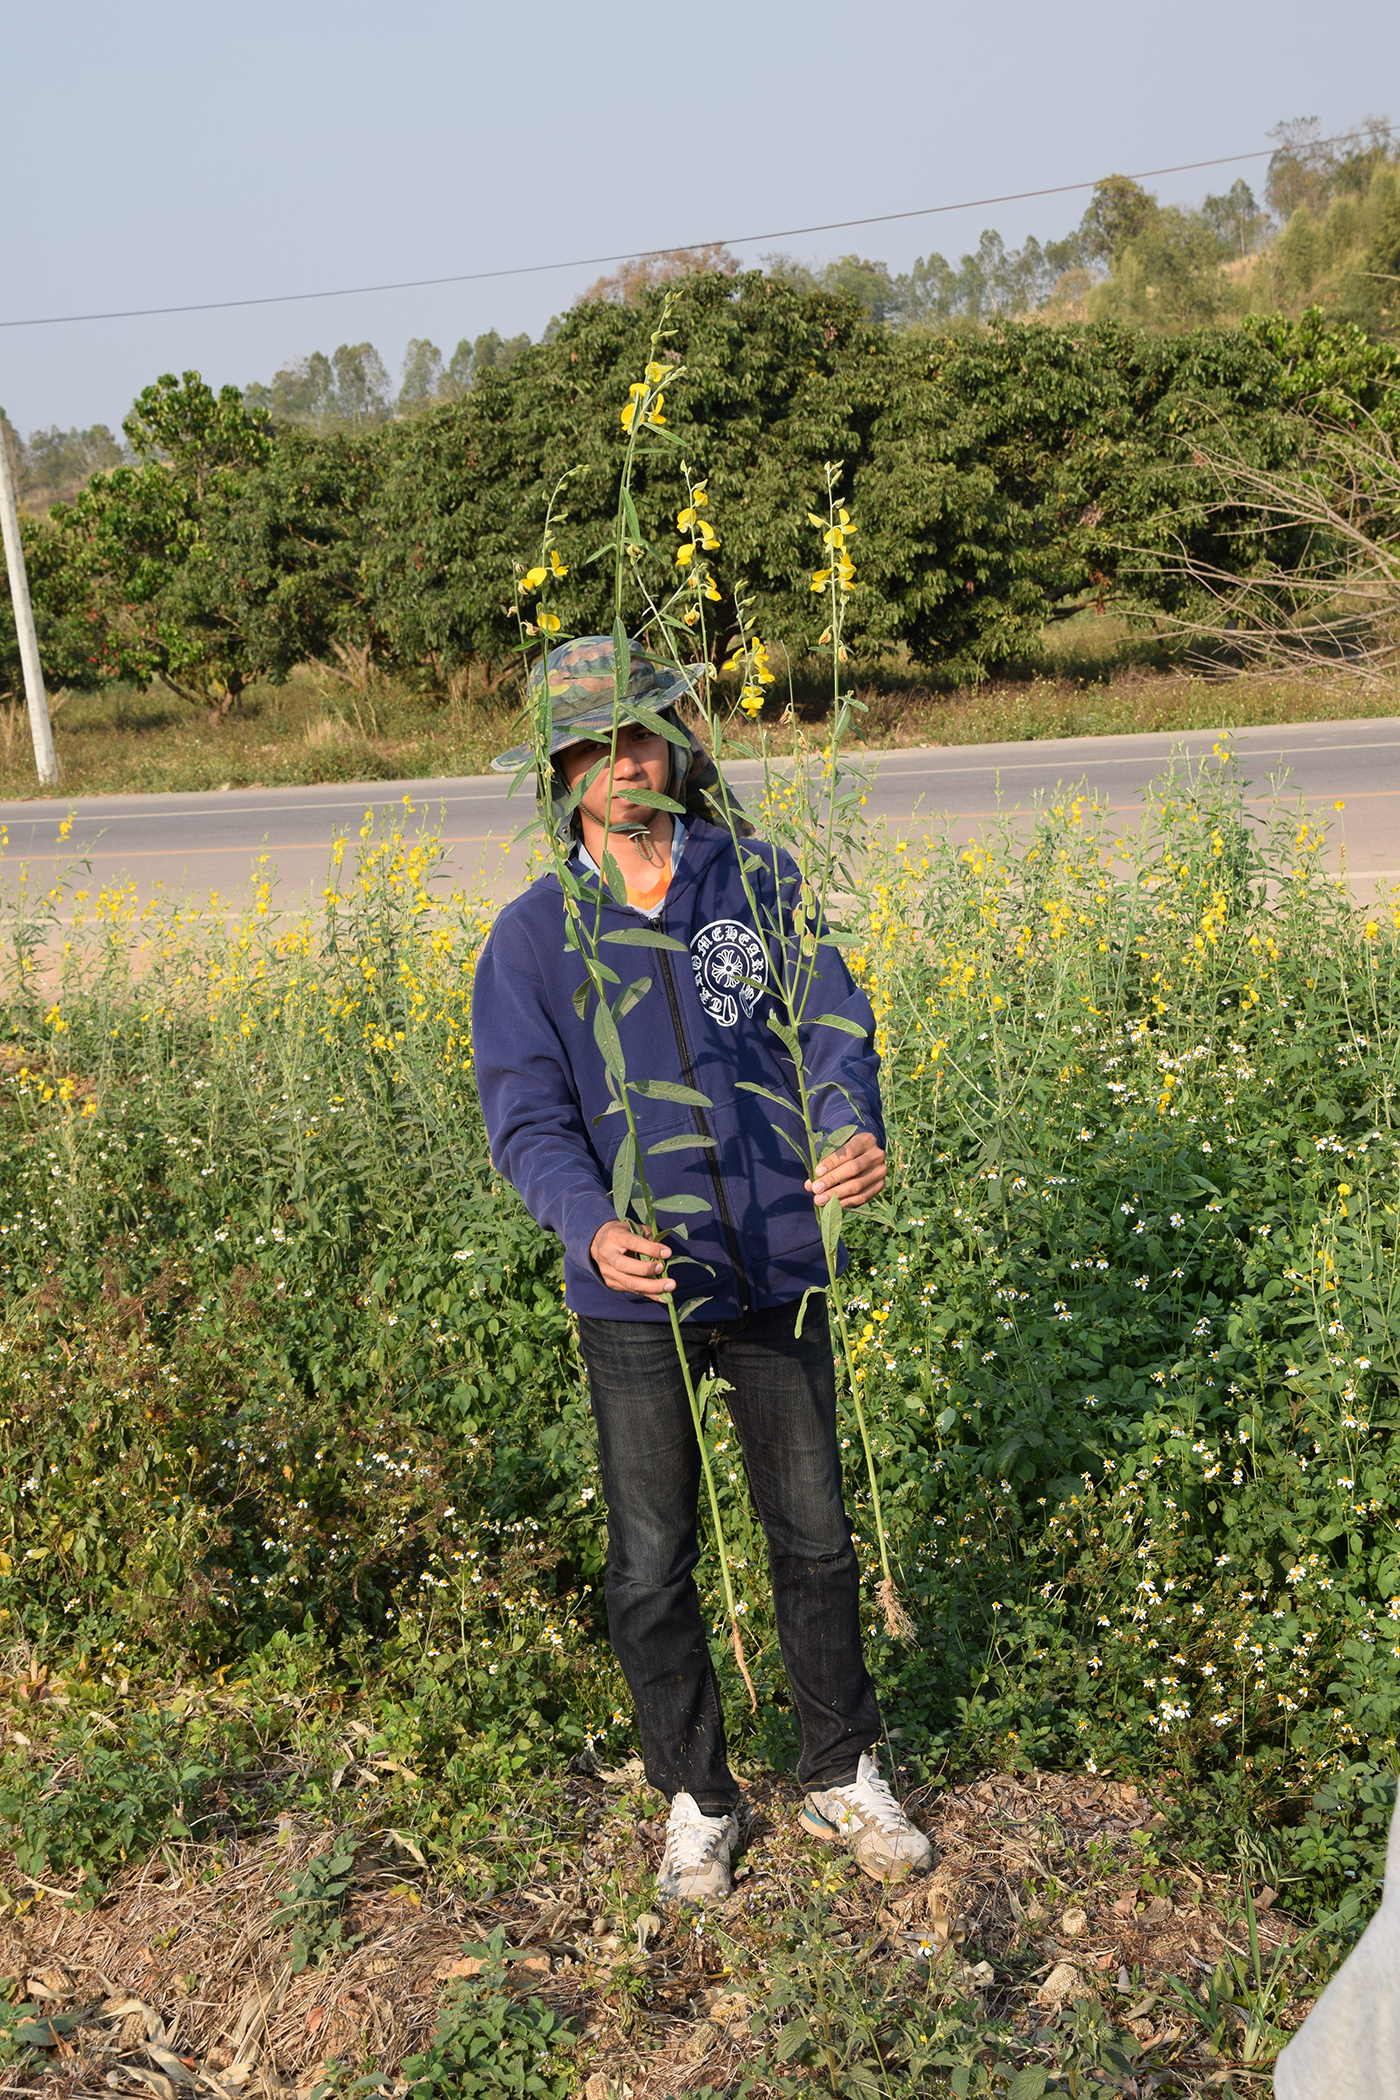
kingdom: Plantae
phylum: Tracheophyta
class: Magnoliopsida
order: Fabales
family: Fabaceae
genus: Crotalaria
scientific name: Crotalaria juncea
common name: Sunn hemp
